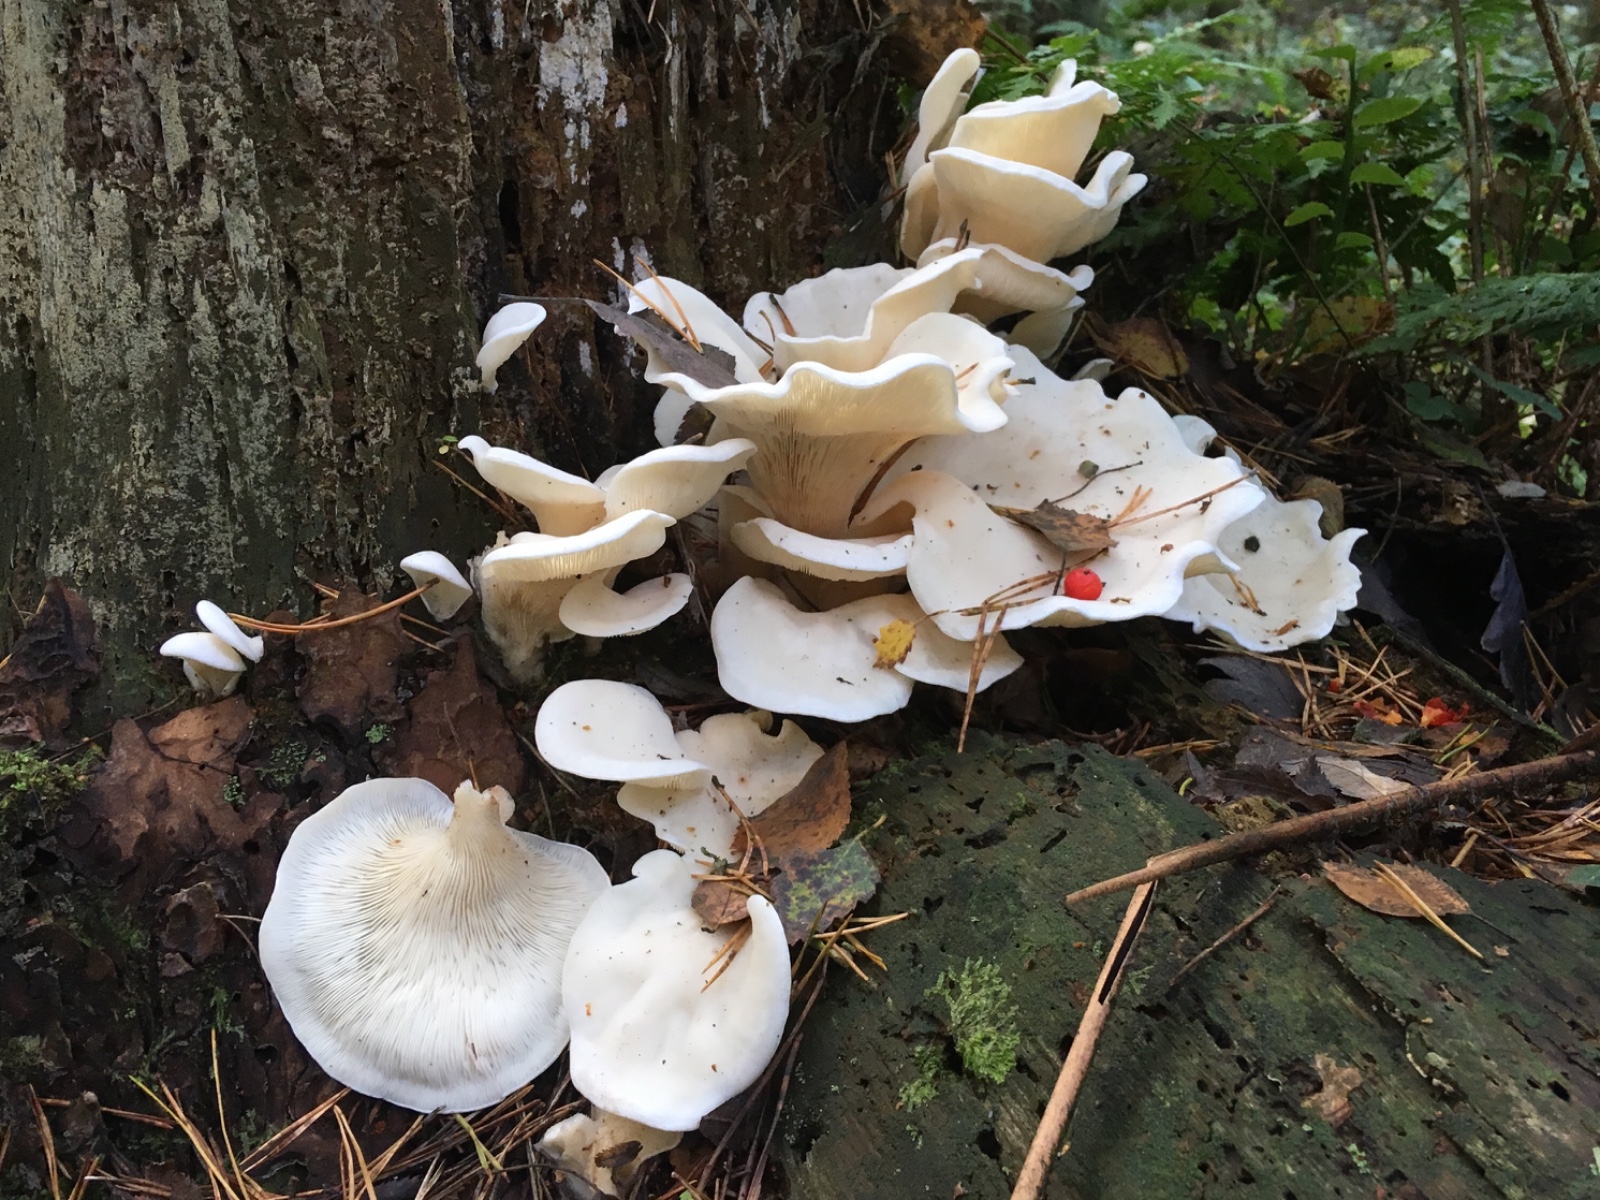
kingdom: Fungi
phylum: Basidiomycota
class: Agaricomycetes
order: Agaricales
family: Marasmiaceae
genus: Pleurocybella
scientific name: Pleurocybella porrigens
